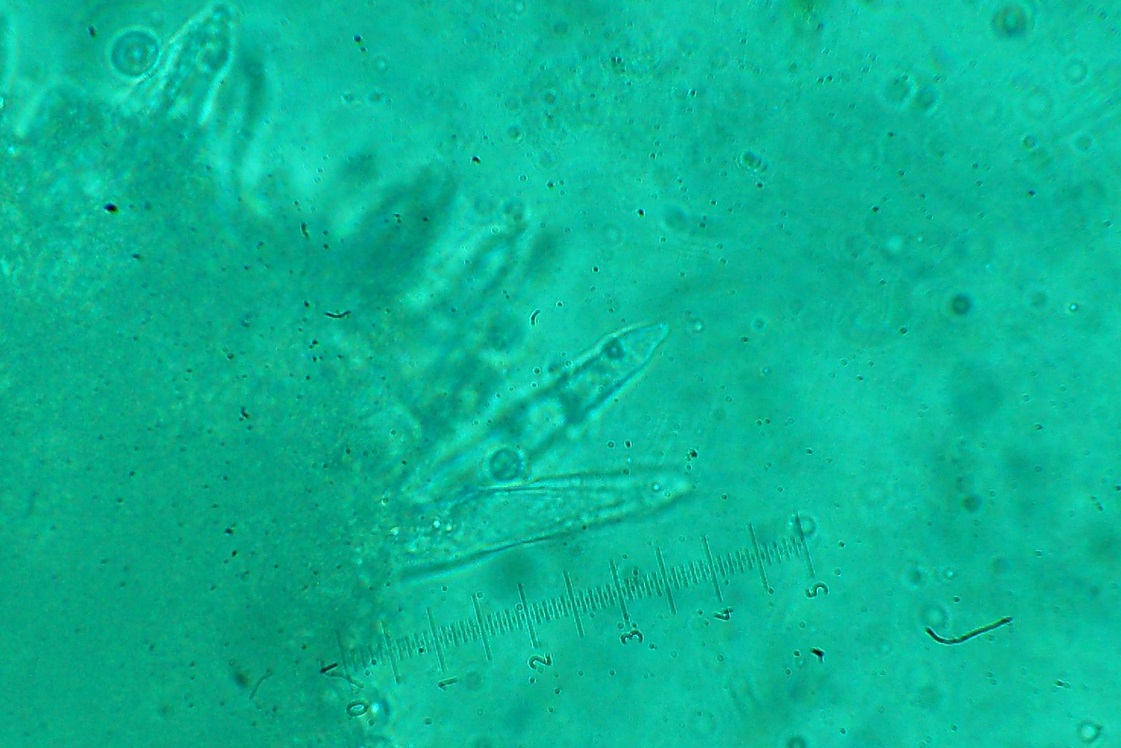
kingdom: Fungi
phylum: Basidiomycota
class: Agaricomycetes
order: Agaricales
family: Mycenaceae
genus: Mycena
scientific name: Mycena galopus
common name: hvidmælket huesvamp
